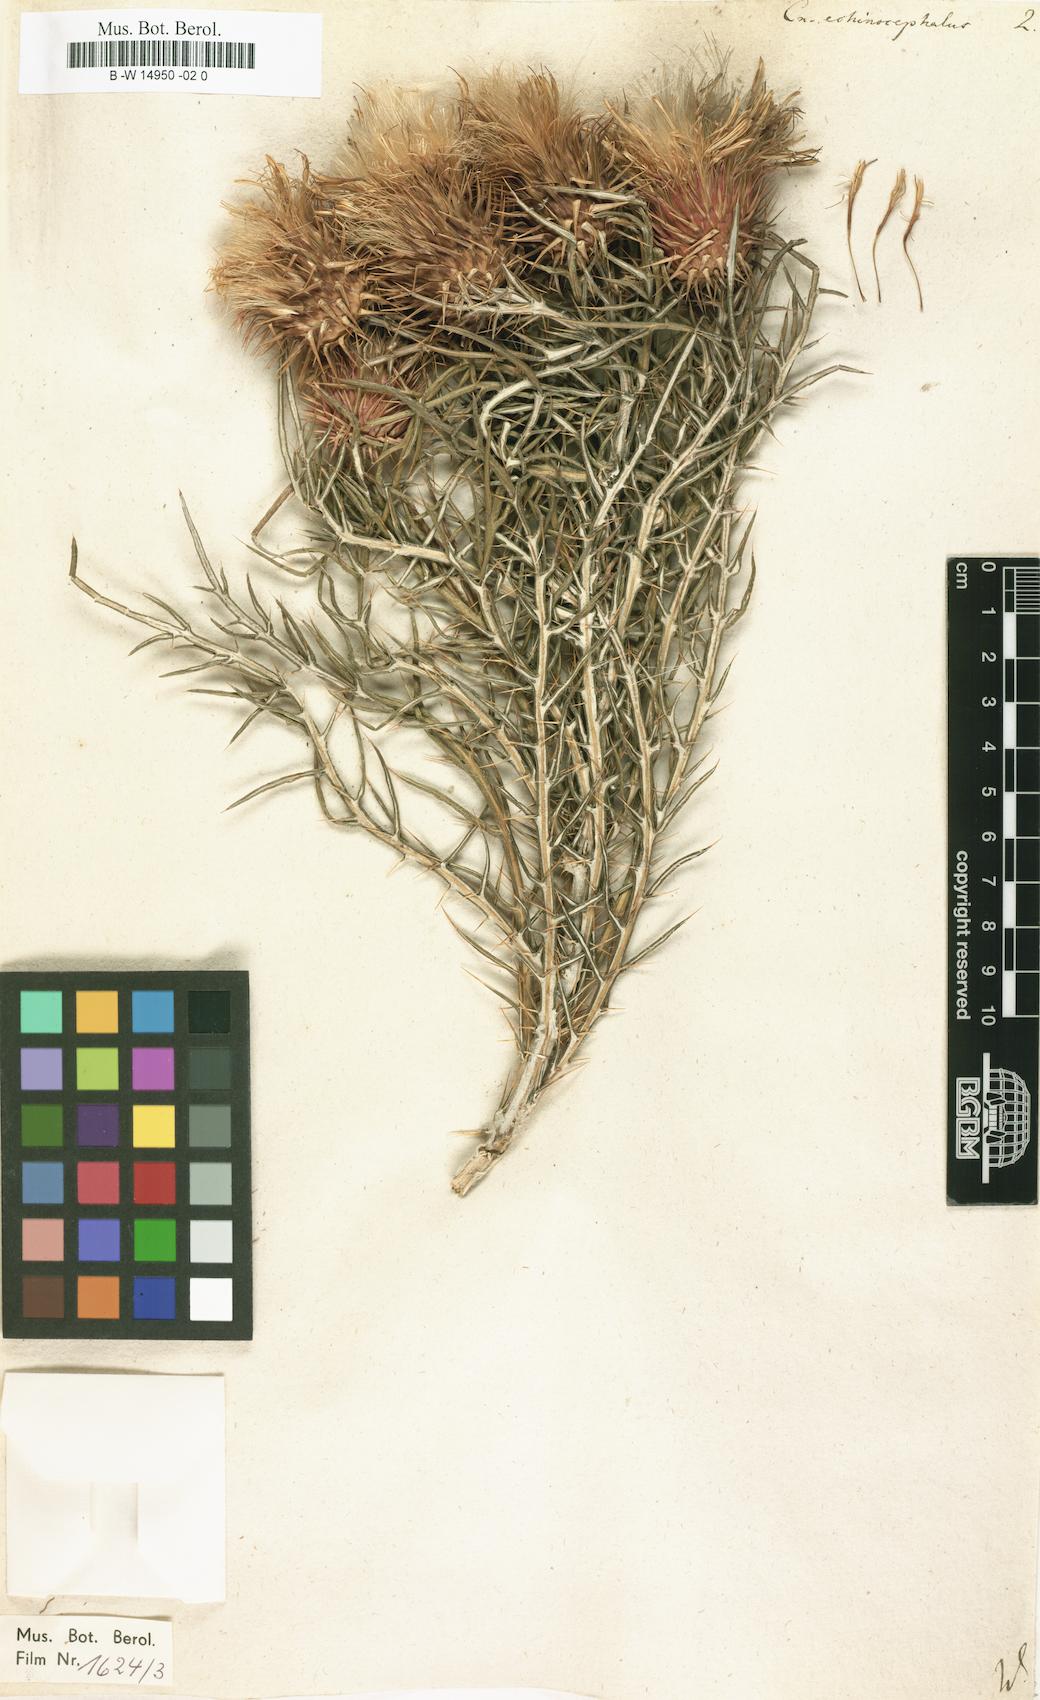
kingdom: Plantae
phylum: Tracheophyta
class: Magnoliopsida
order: Asterales
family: Asteraceae
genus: Ptilostemon
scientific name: Ptilostemon echinocephalus
